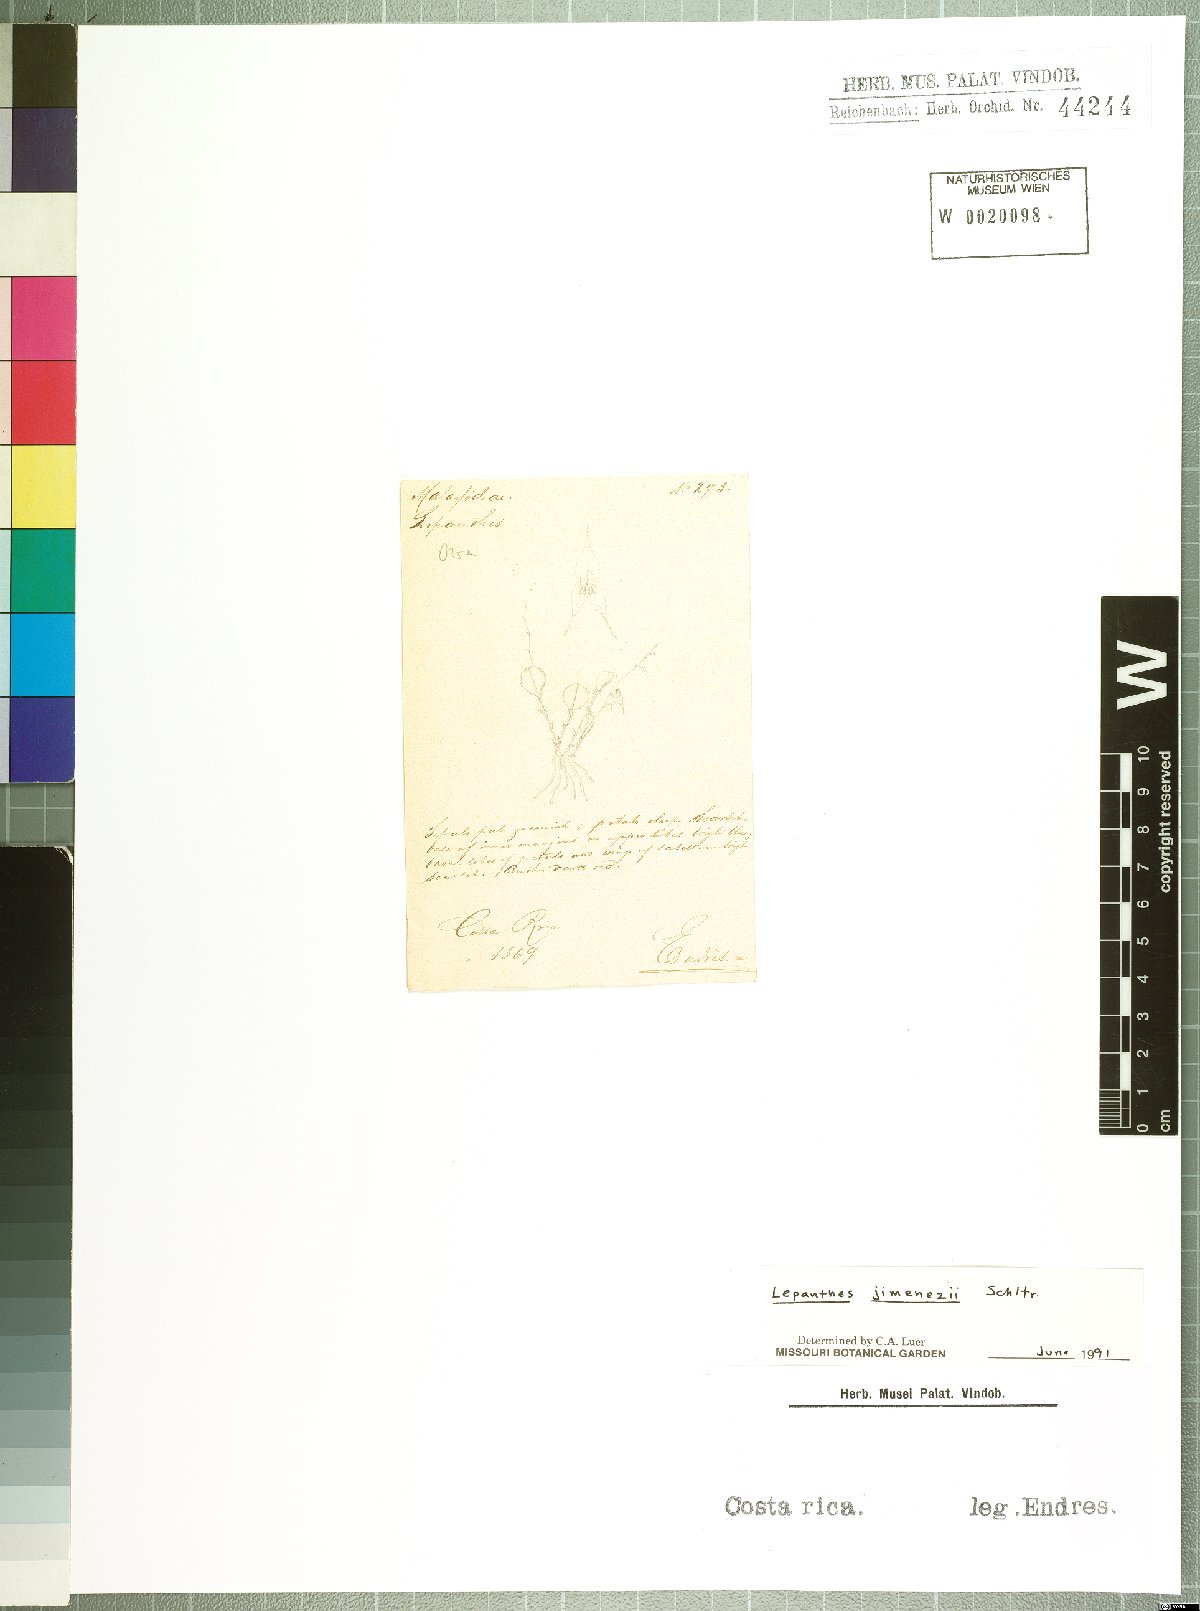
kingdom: Plantae
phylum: Tracheophyta
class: Liliopsida
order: Asparagales
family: Orchidaceae
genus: Lepanthes
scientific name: Lepanthes jimenezii
